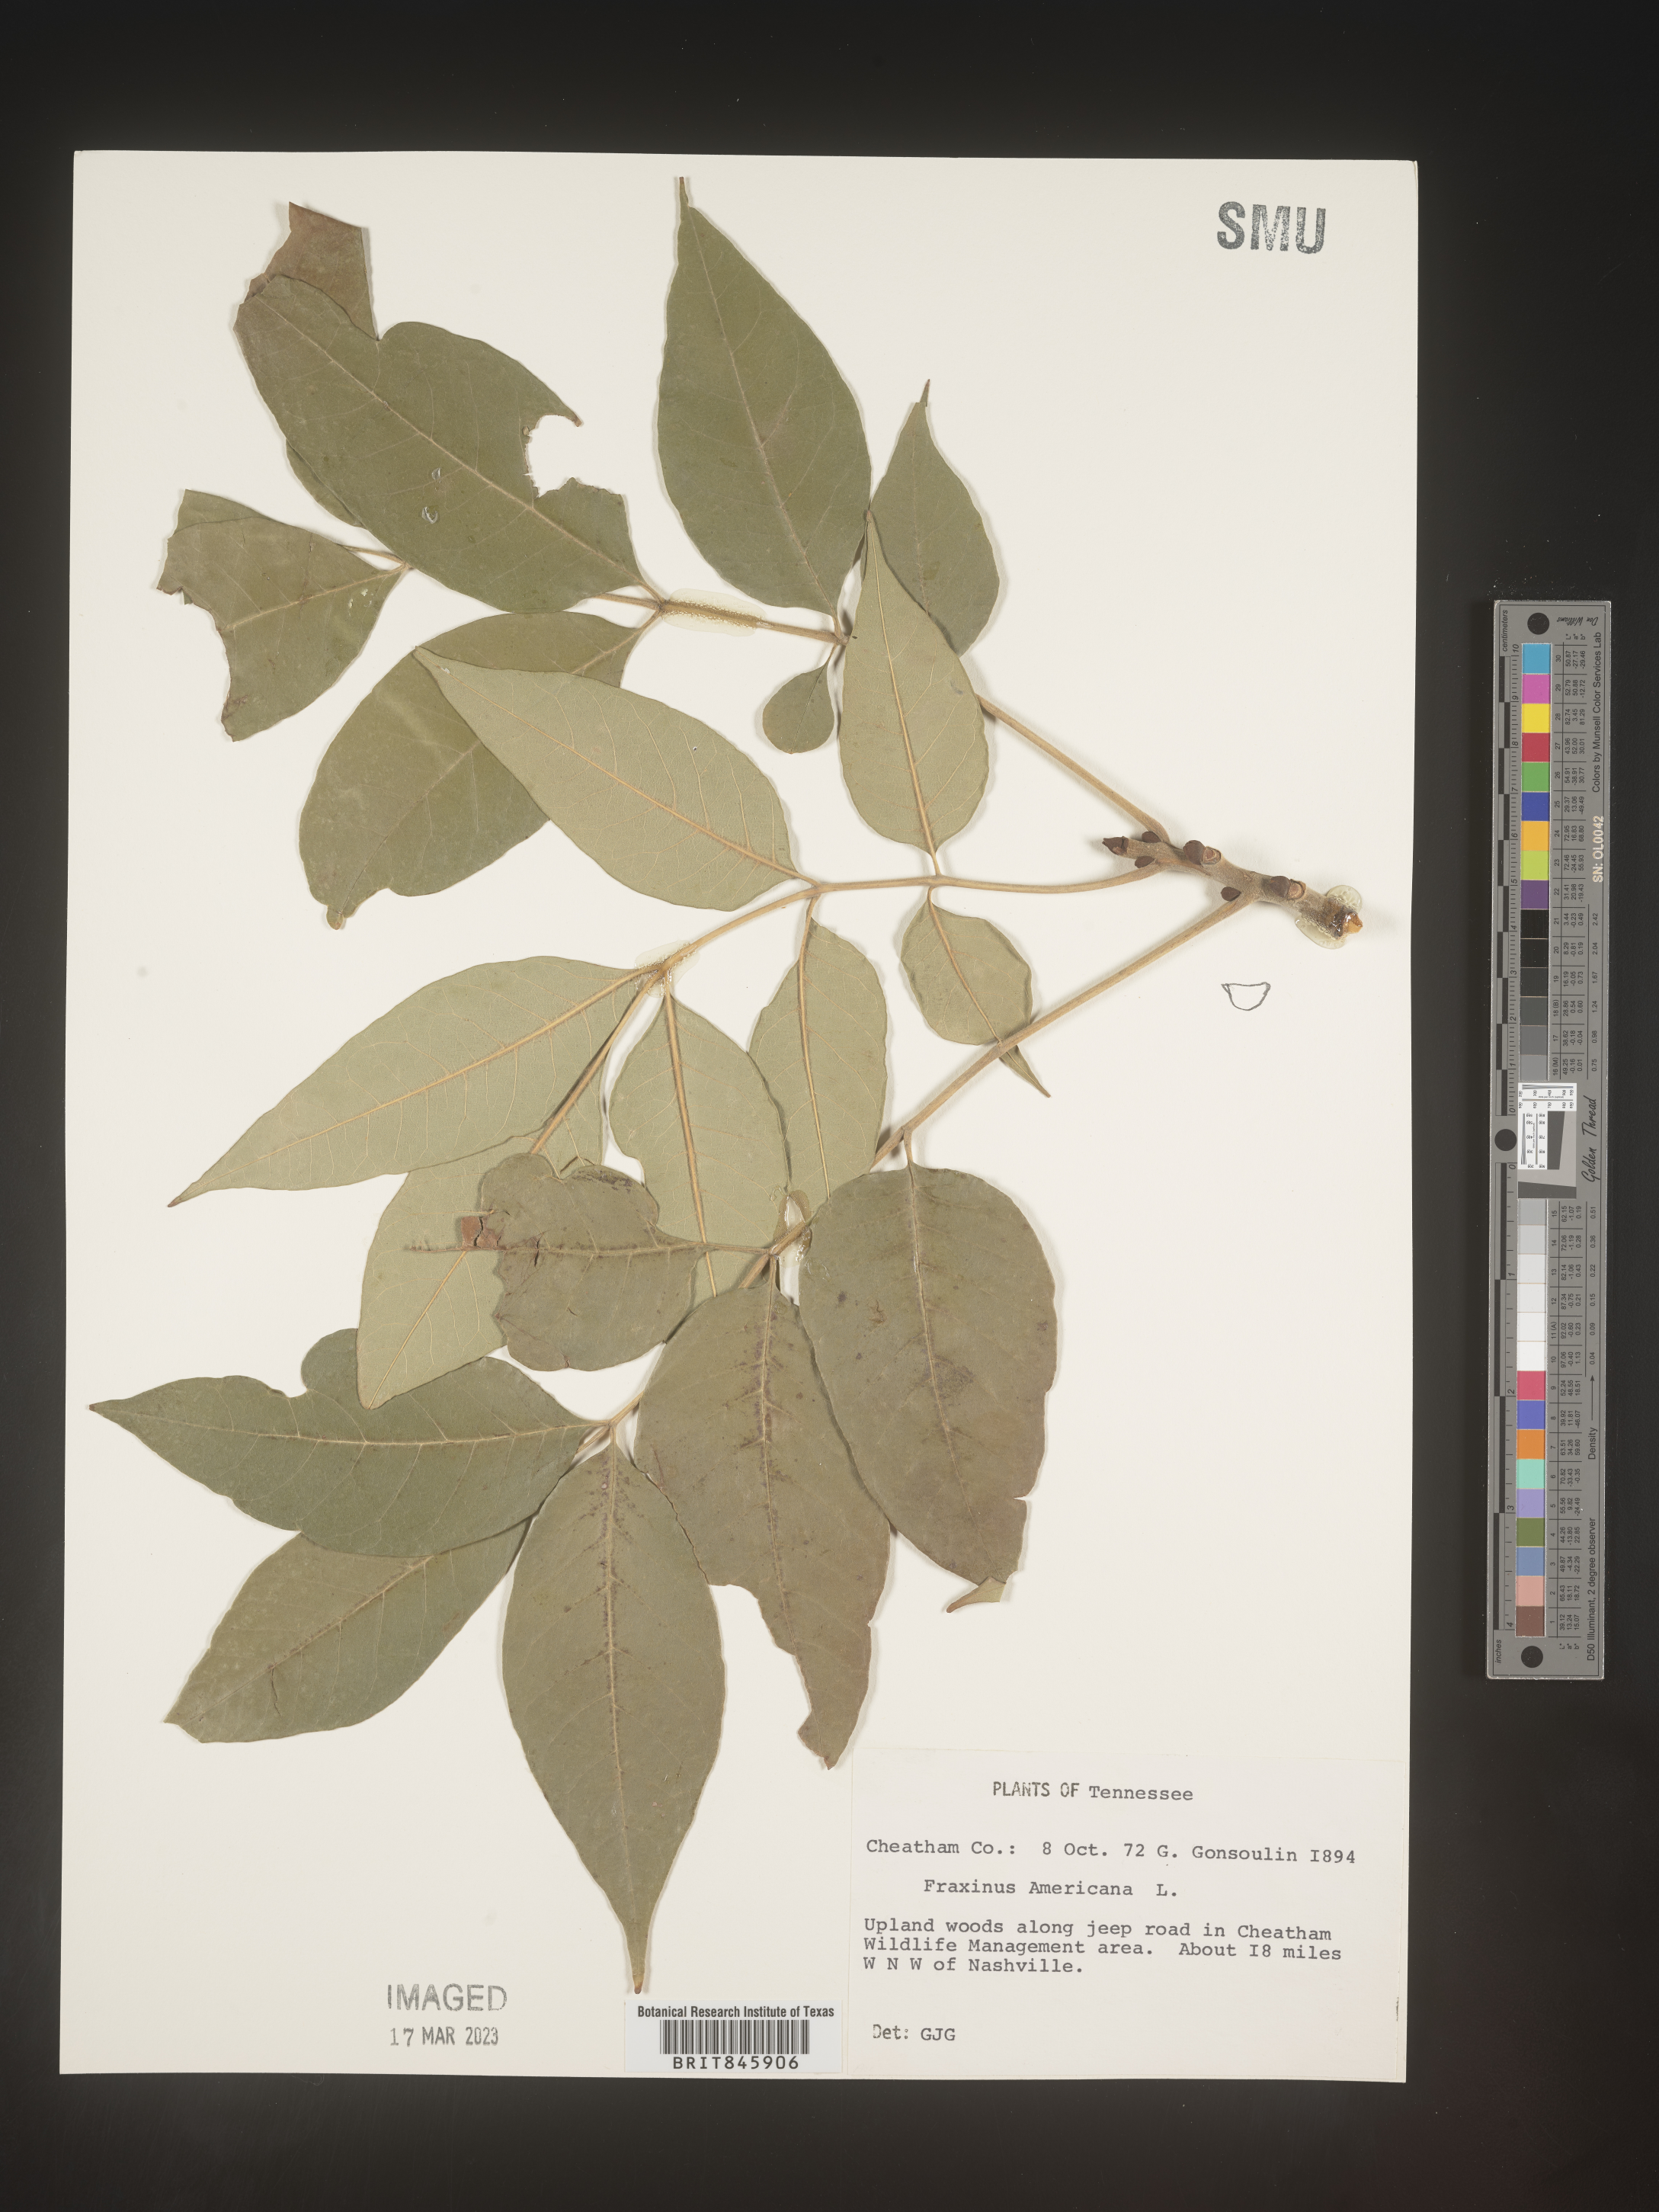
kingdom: Plantae
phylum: Tracheophyta
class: Magnoliopsida
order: Lamiales
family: Oleaceae
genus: Fraxinus
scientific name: Fraxinus americana
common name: White ash
